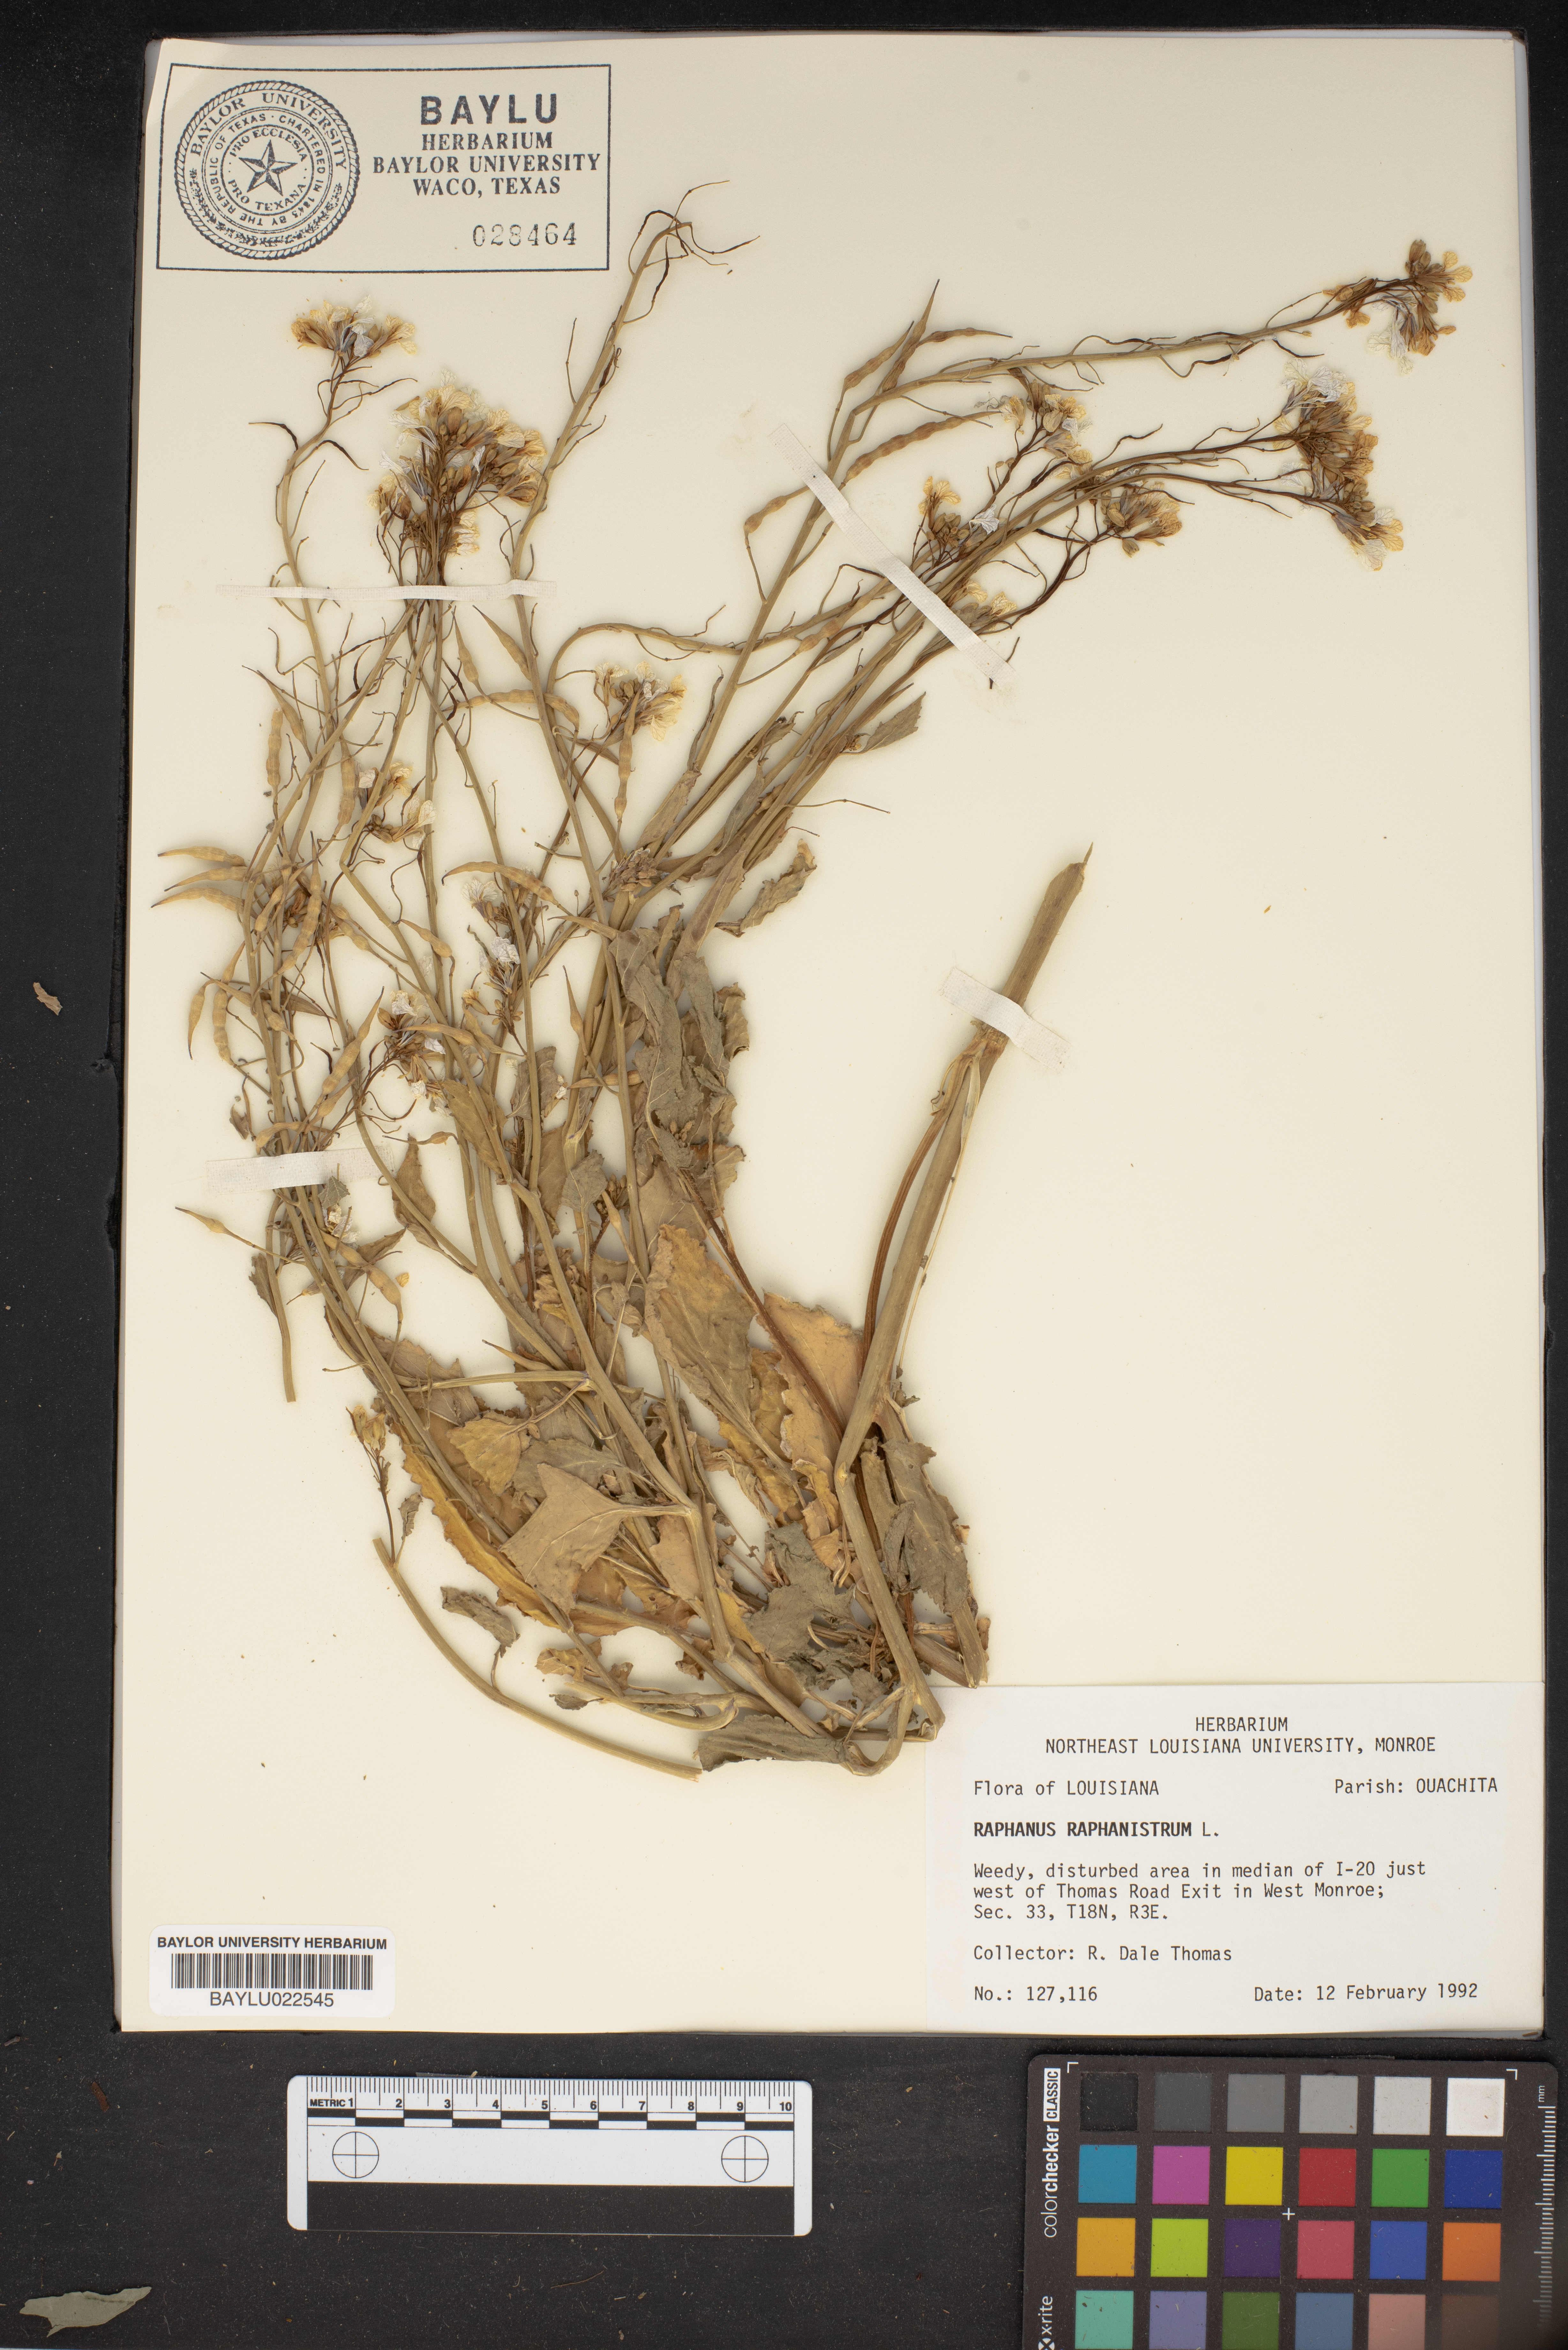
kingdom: Plantae
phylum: Tracheophyta
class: Magnoliopsida
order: Brassicales
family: Brassicaceae
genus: Raphanus
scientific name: Raphanus raphanistrum
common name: Wild radish
